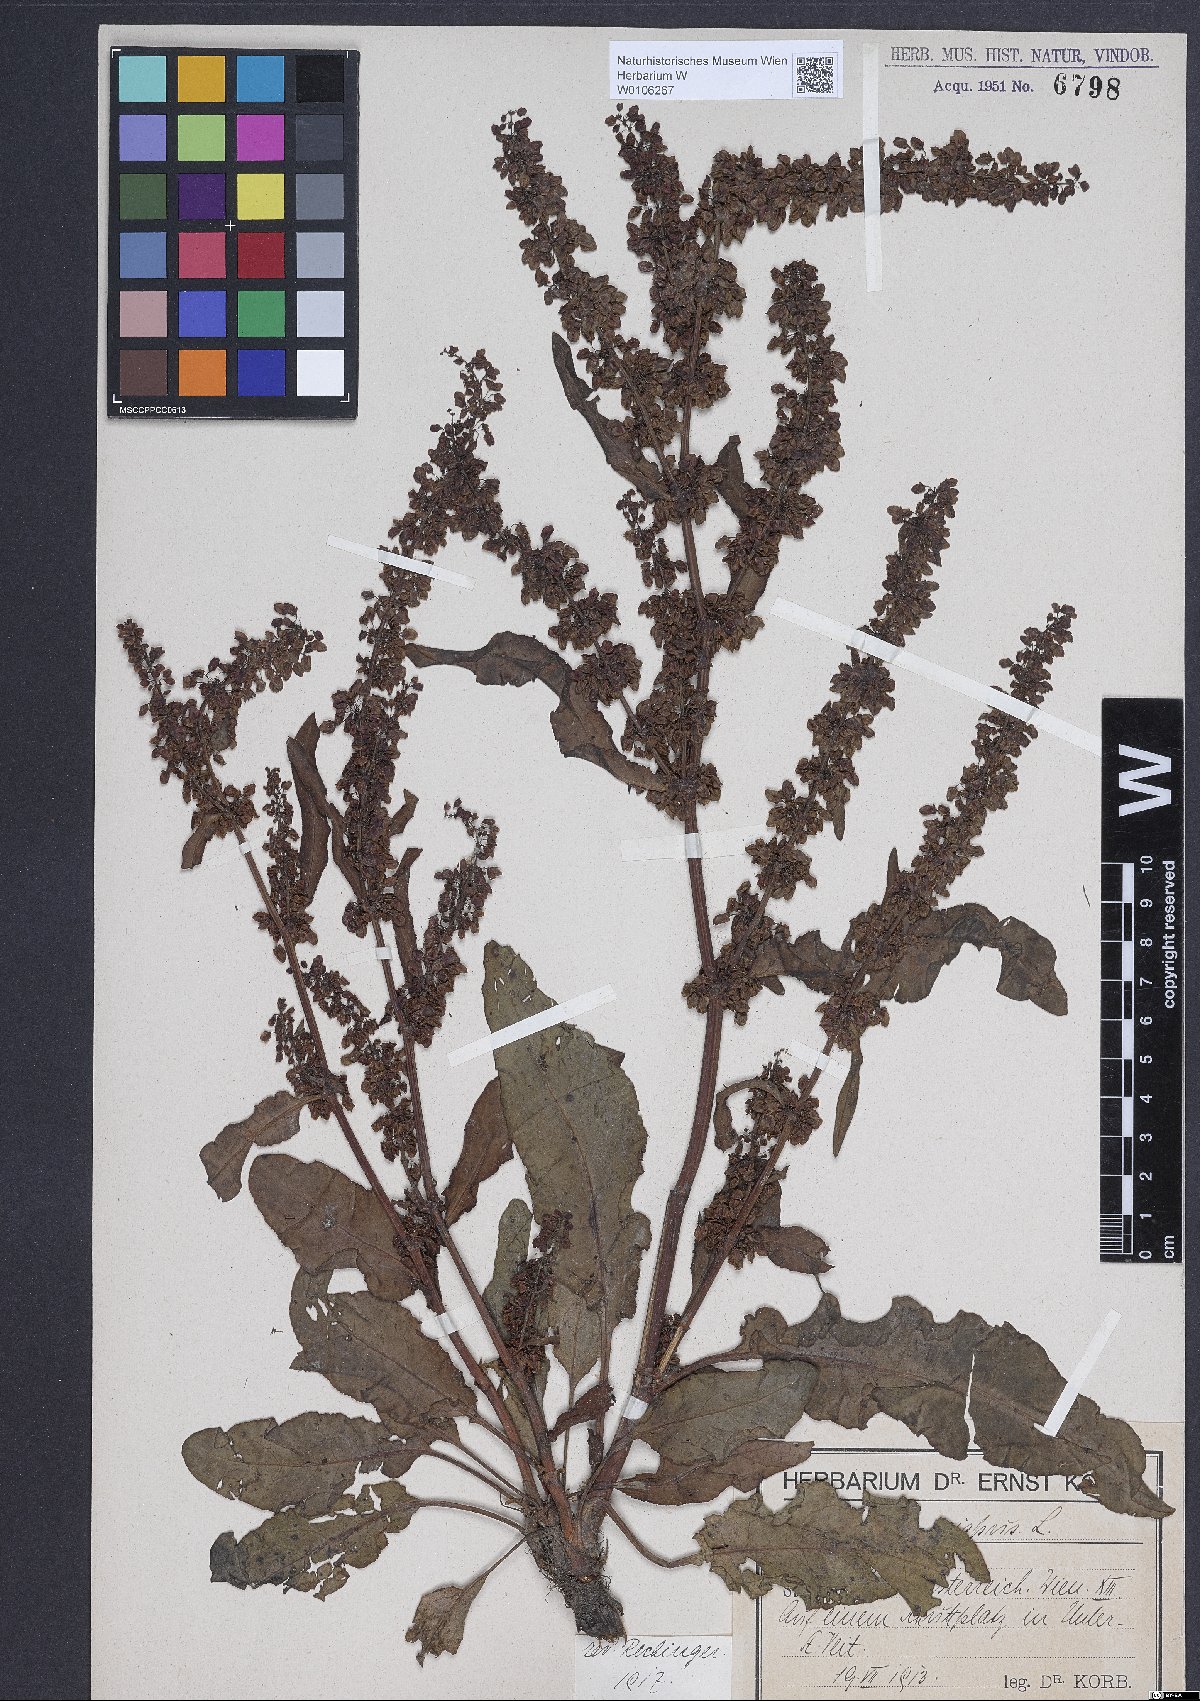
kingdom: Plantae
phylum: Tracheophyta
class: Magnoliopsida
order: Caryophyllales
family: Polygonaceae
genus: Rumex
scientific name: Rumex crispus
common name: Curled dock
